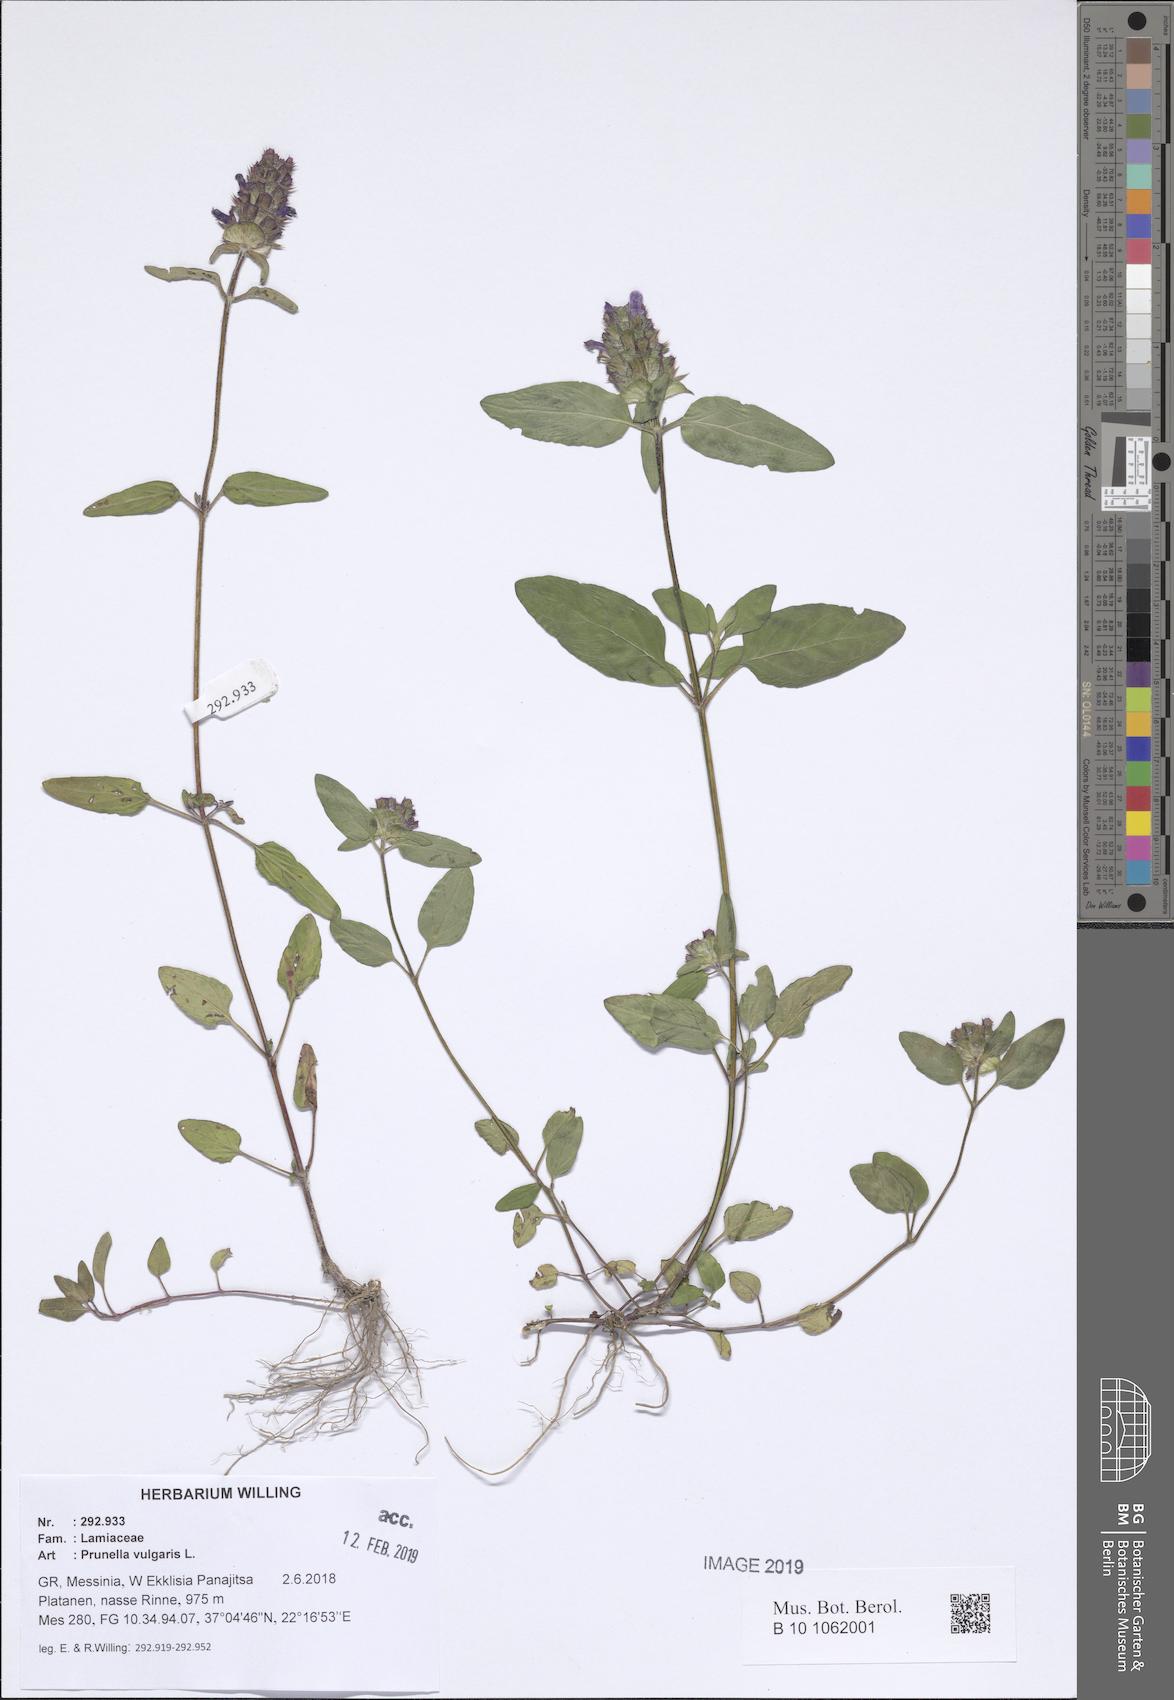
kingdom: Plantae
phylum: Tracheophyta
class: Magnoliopsida
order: Lamiales
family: Lamiaceae
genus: Prunella
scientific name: Prunella vulgaris
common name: Heal-all
